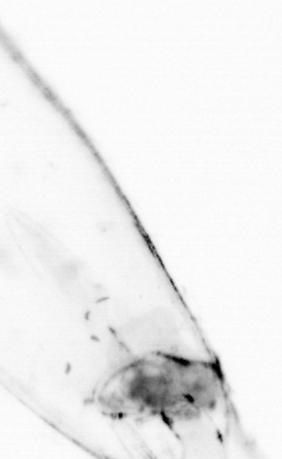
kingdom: Animalia
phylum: Chaetognatha
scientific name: Chaetognatha
